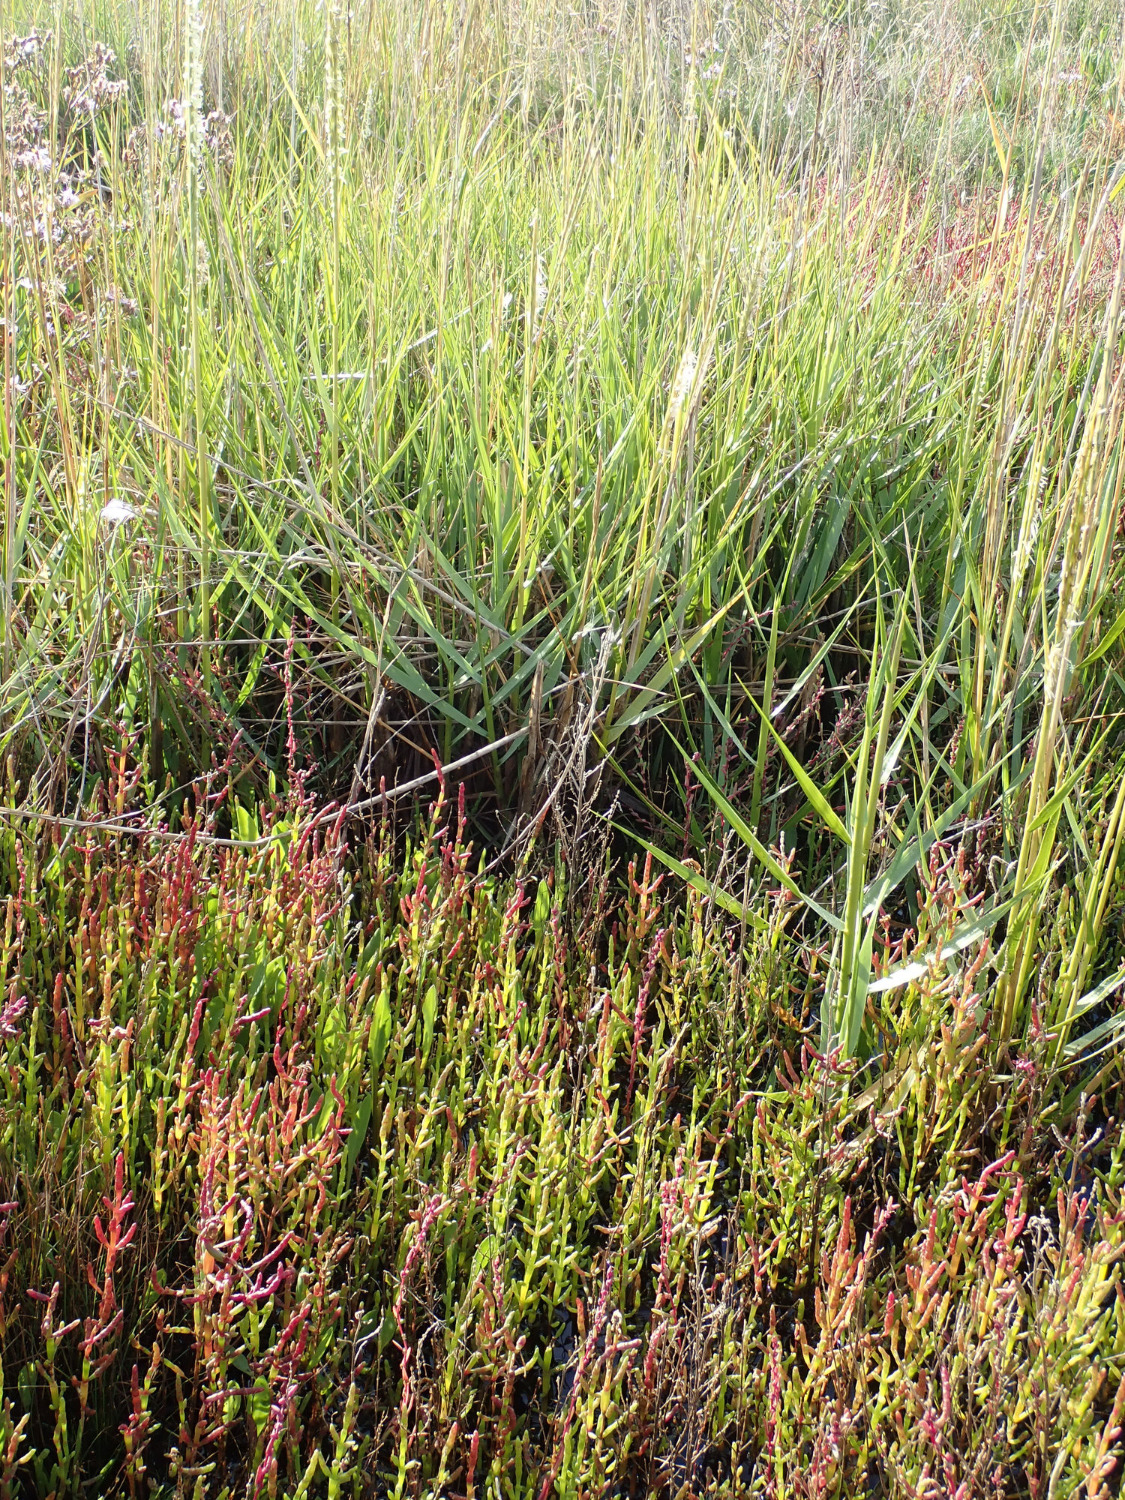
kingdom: Plantae
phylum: Tracheophyta
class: Magnoliopsida
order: Caryophyllales
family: Amaranthaceae
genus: Salicornia
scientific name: Salicornia europaea
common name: Almindelig salturt
